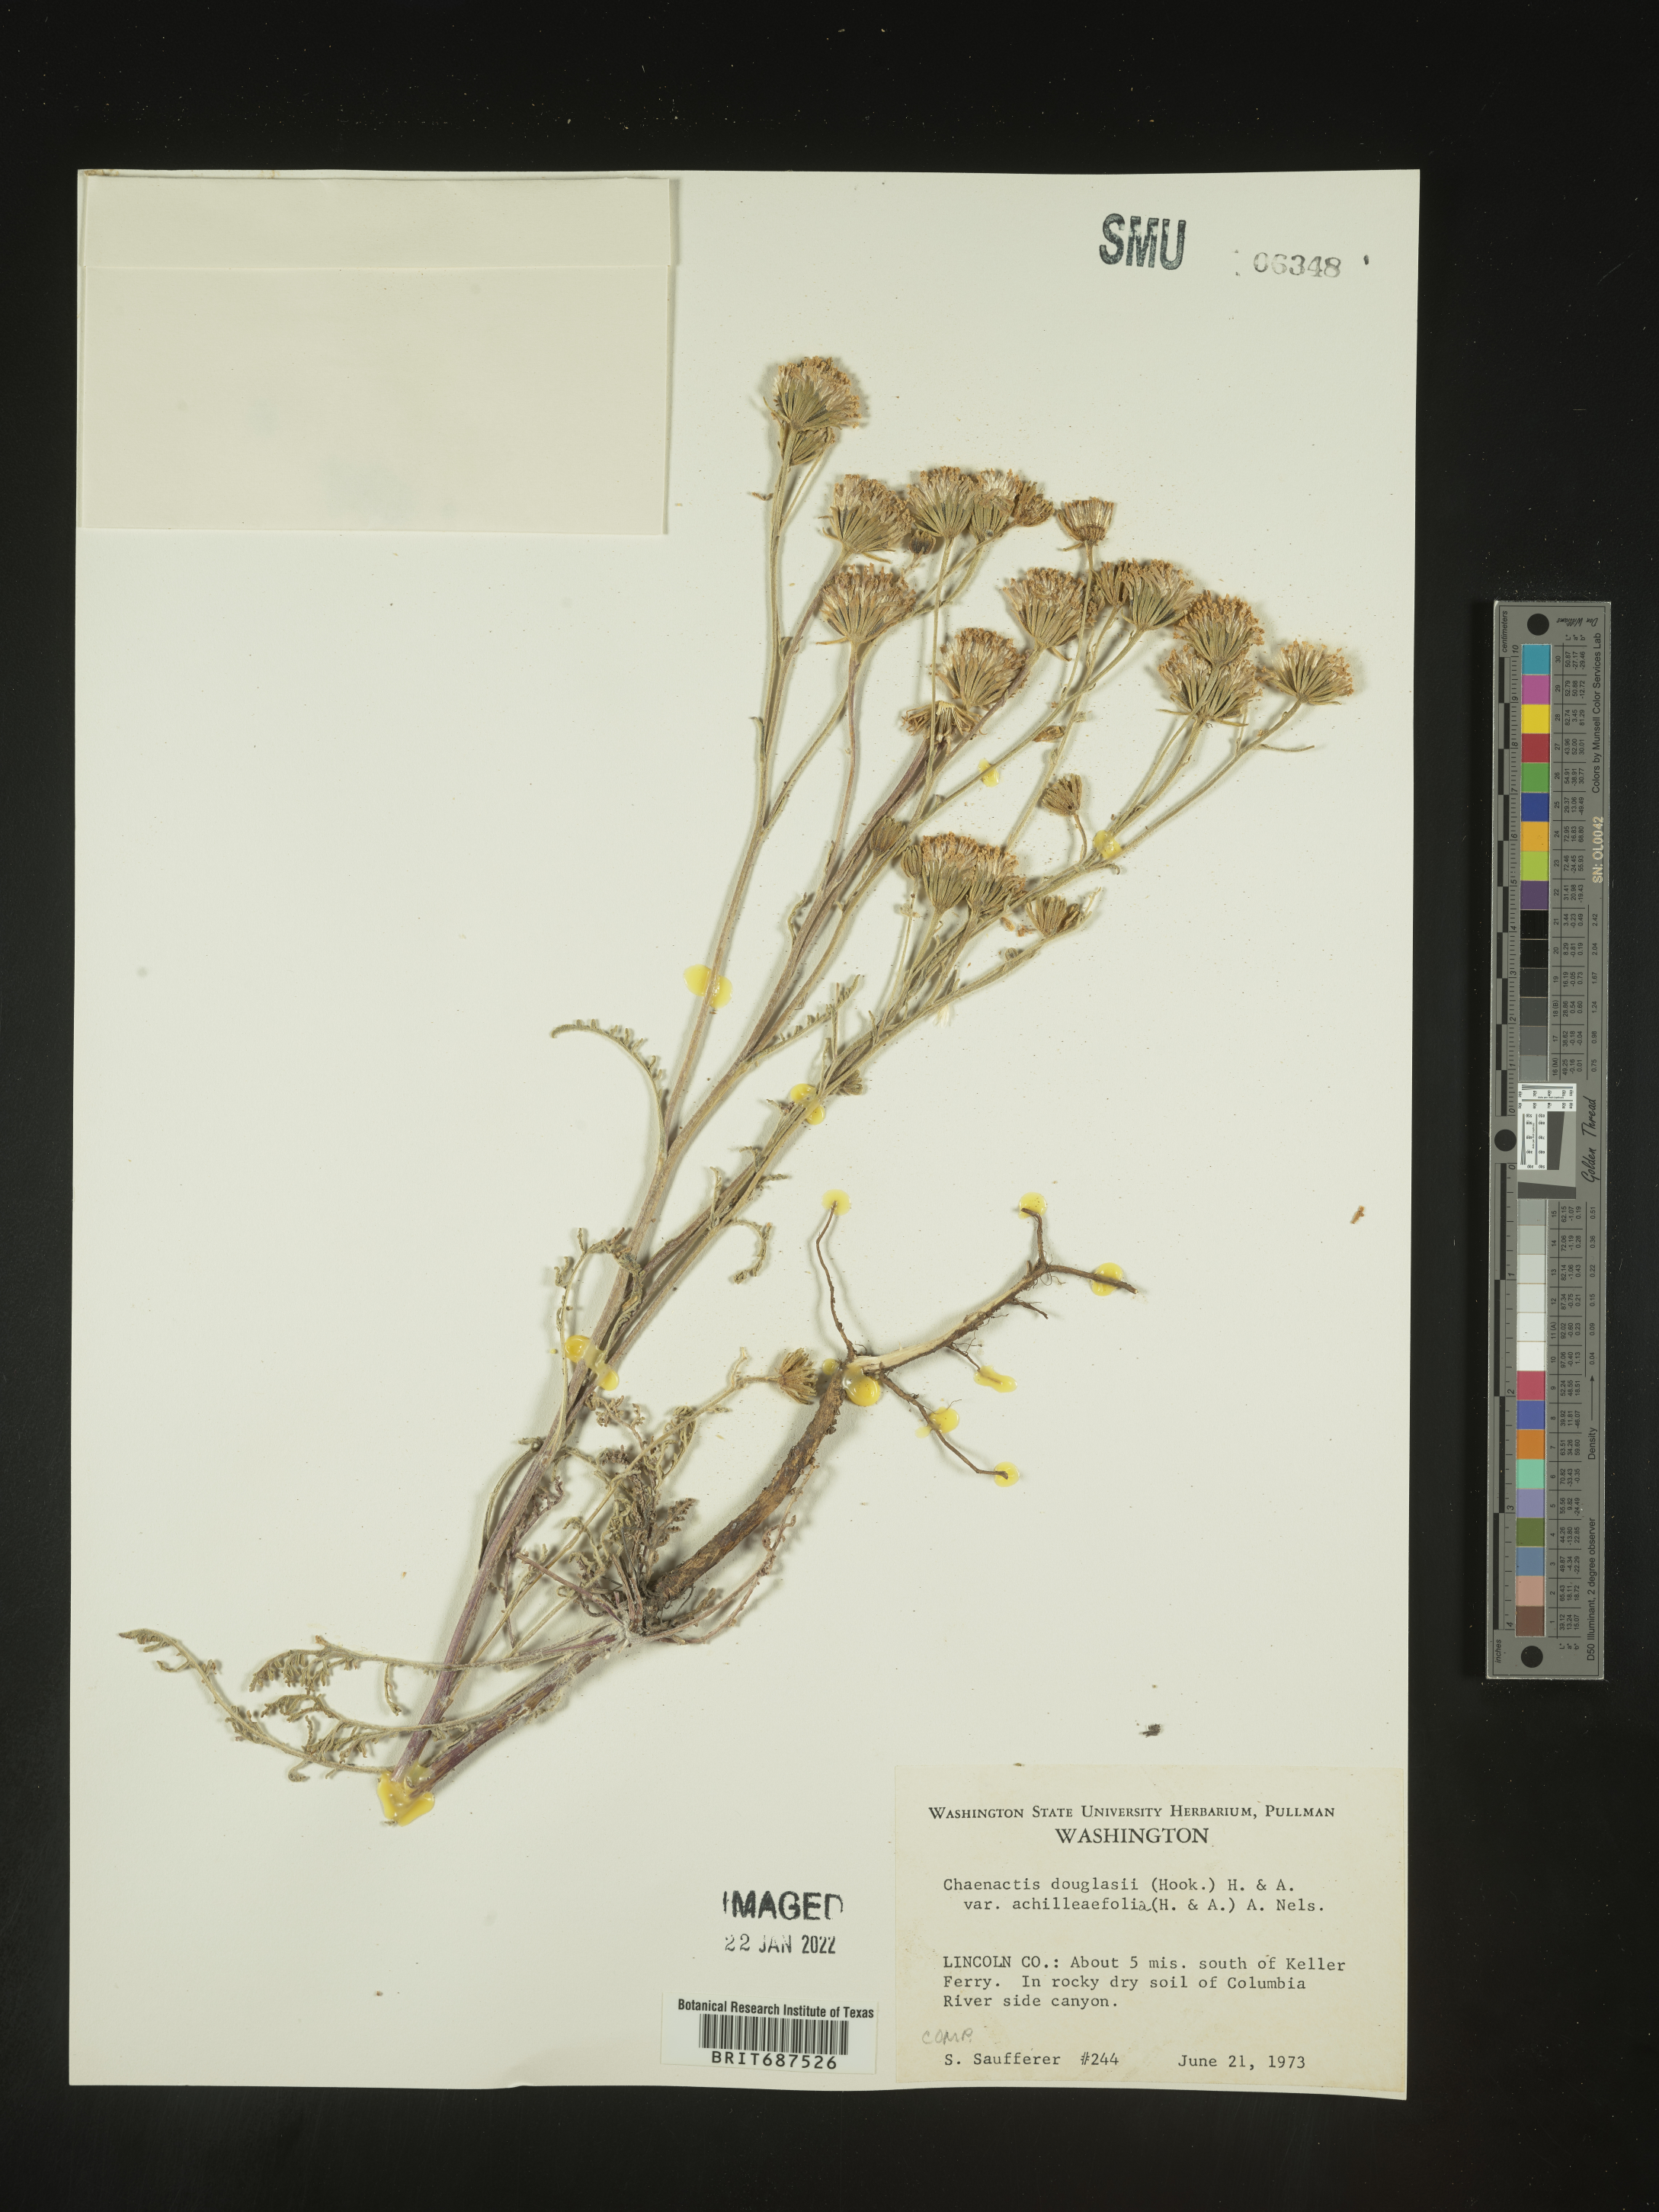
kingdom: Plantae
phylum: Tracheophyta
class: Magnoliopsida
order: Asterales
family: Asteraceae
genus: Chaenactis
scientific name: Chaenactis douglasii
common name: Hoary pincushion
